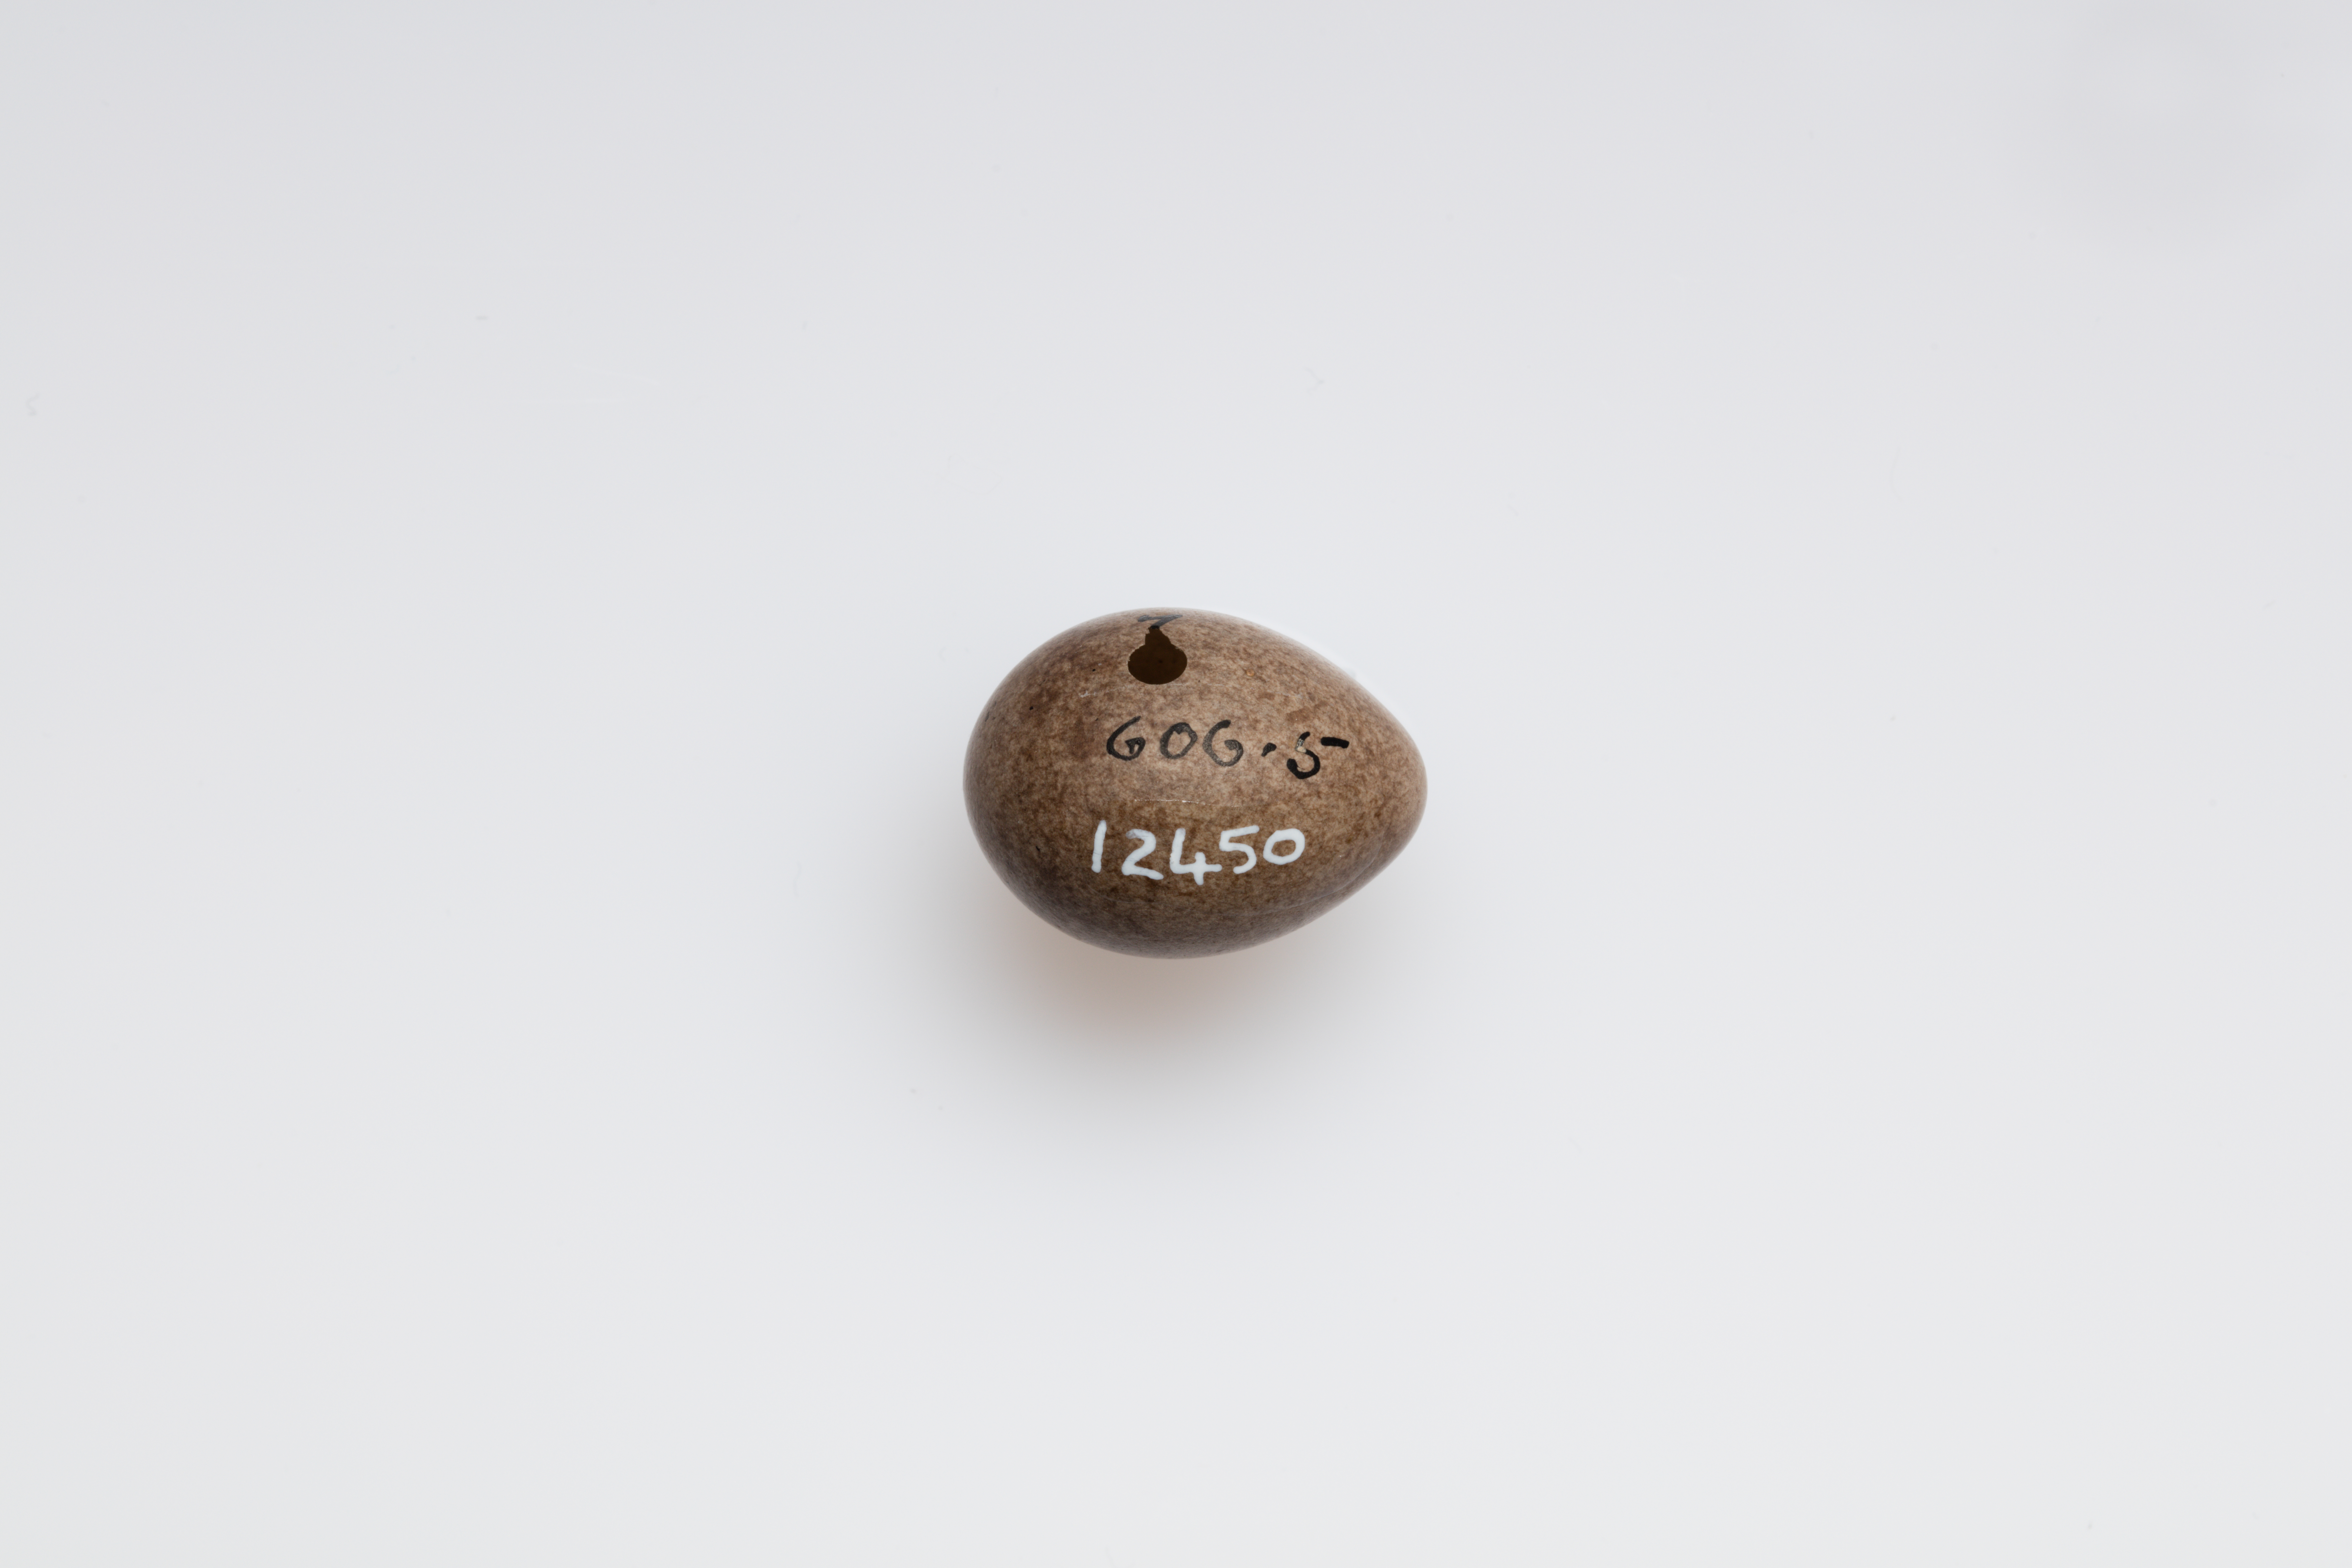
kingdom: Animalia
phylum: Chordata
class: Aves
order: Passeriformes
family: Motacillidae
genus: Anthus
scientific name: Anthus pratensis
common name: Meadow pipit
